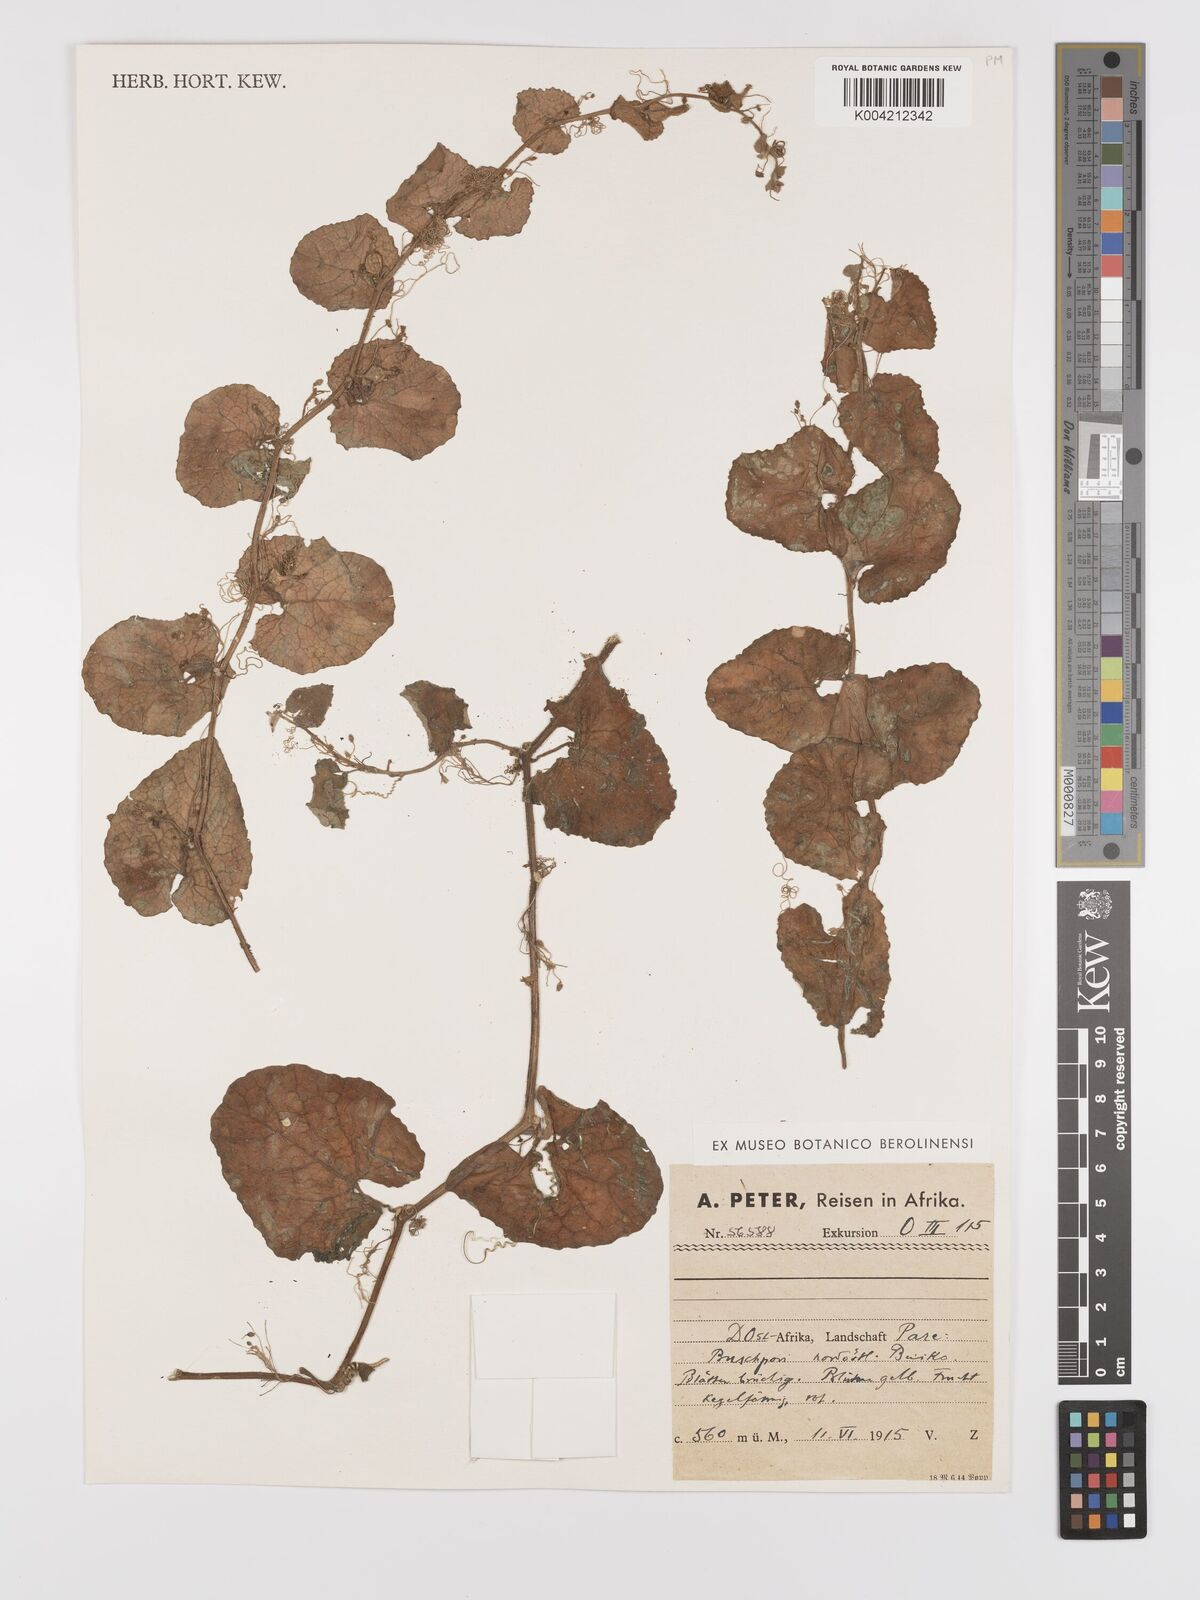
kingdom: Plantae
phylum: Tracheophyta
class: Magnoliopsida
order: Cucurbitales
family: Cucurbitaceae
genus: Kedrostis
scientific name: Kedrostis foetidissima
